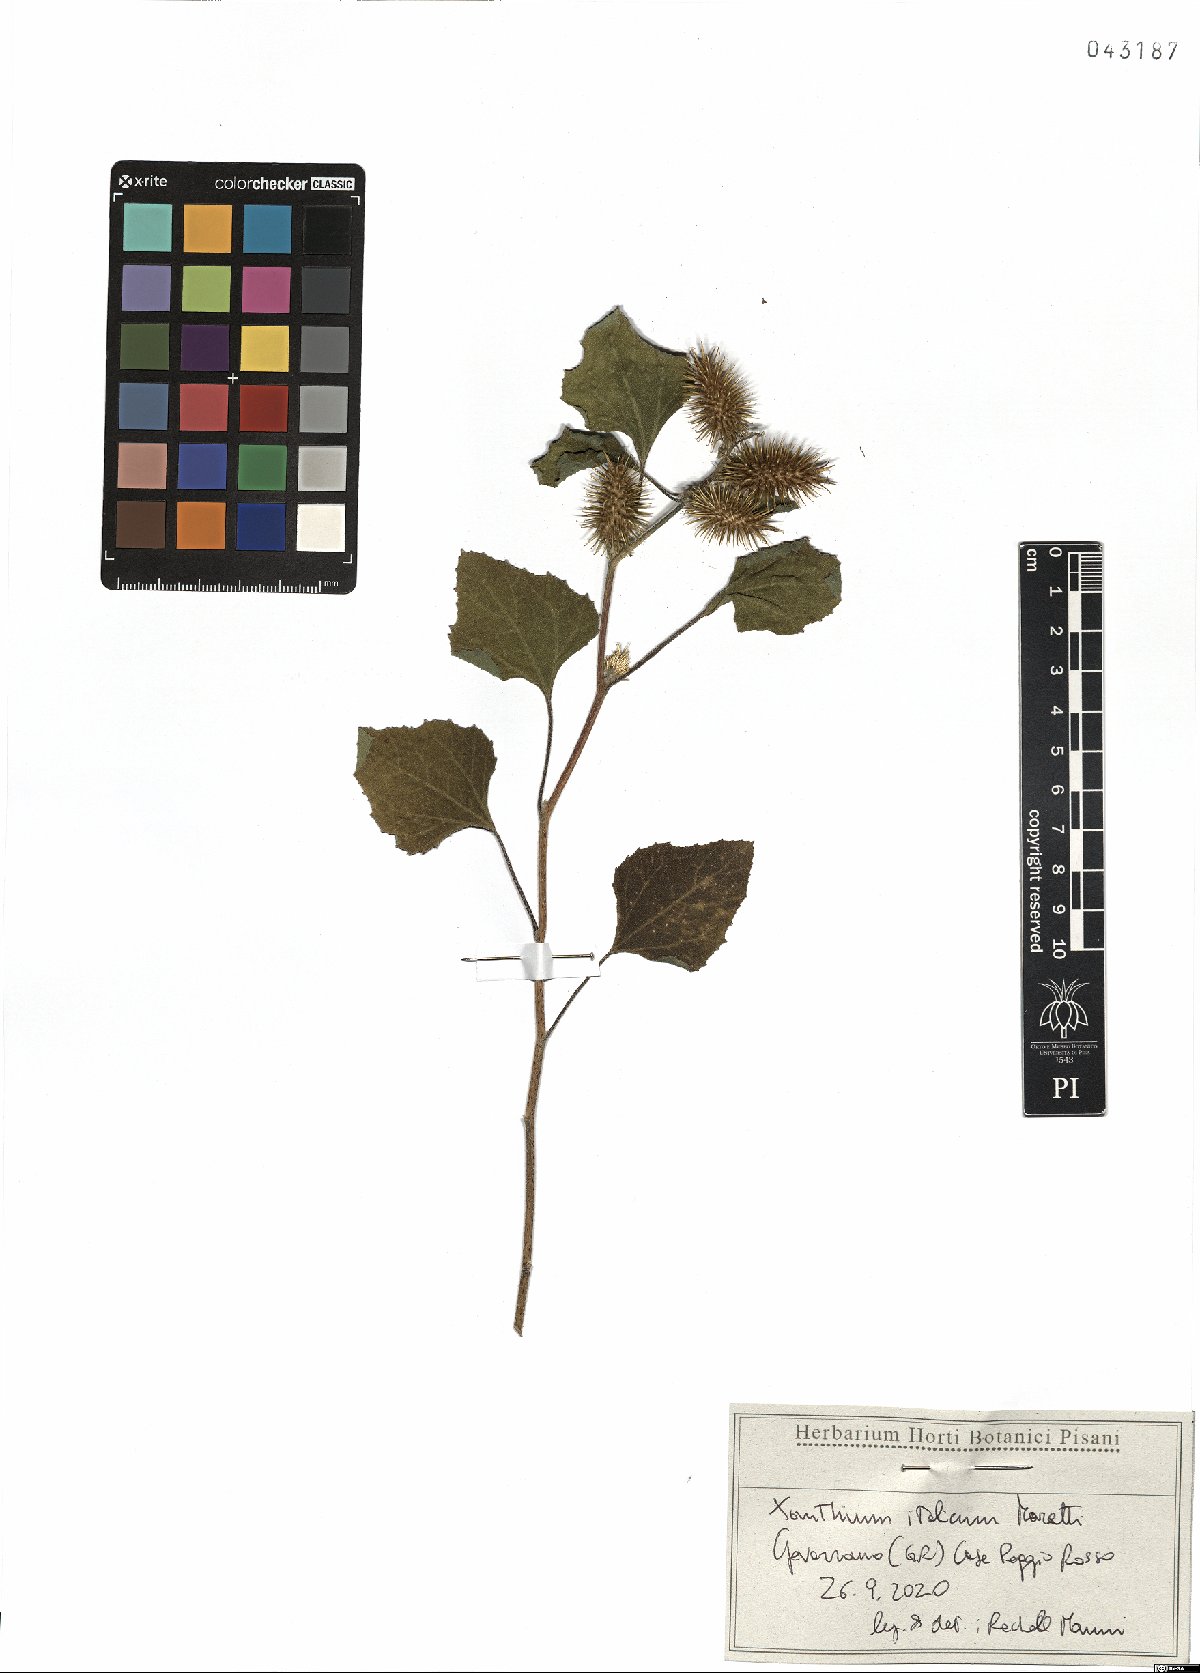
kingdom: Plantae
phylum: Tracheophyta
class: Magnoliopsida
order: Asterales
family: Asteraceae
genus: Xanthium
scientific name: Xanthium orientale
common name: Californian burr
